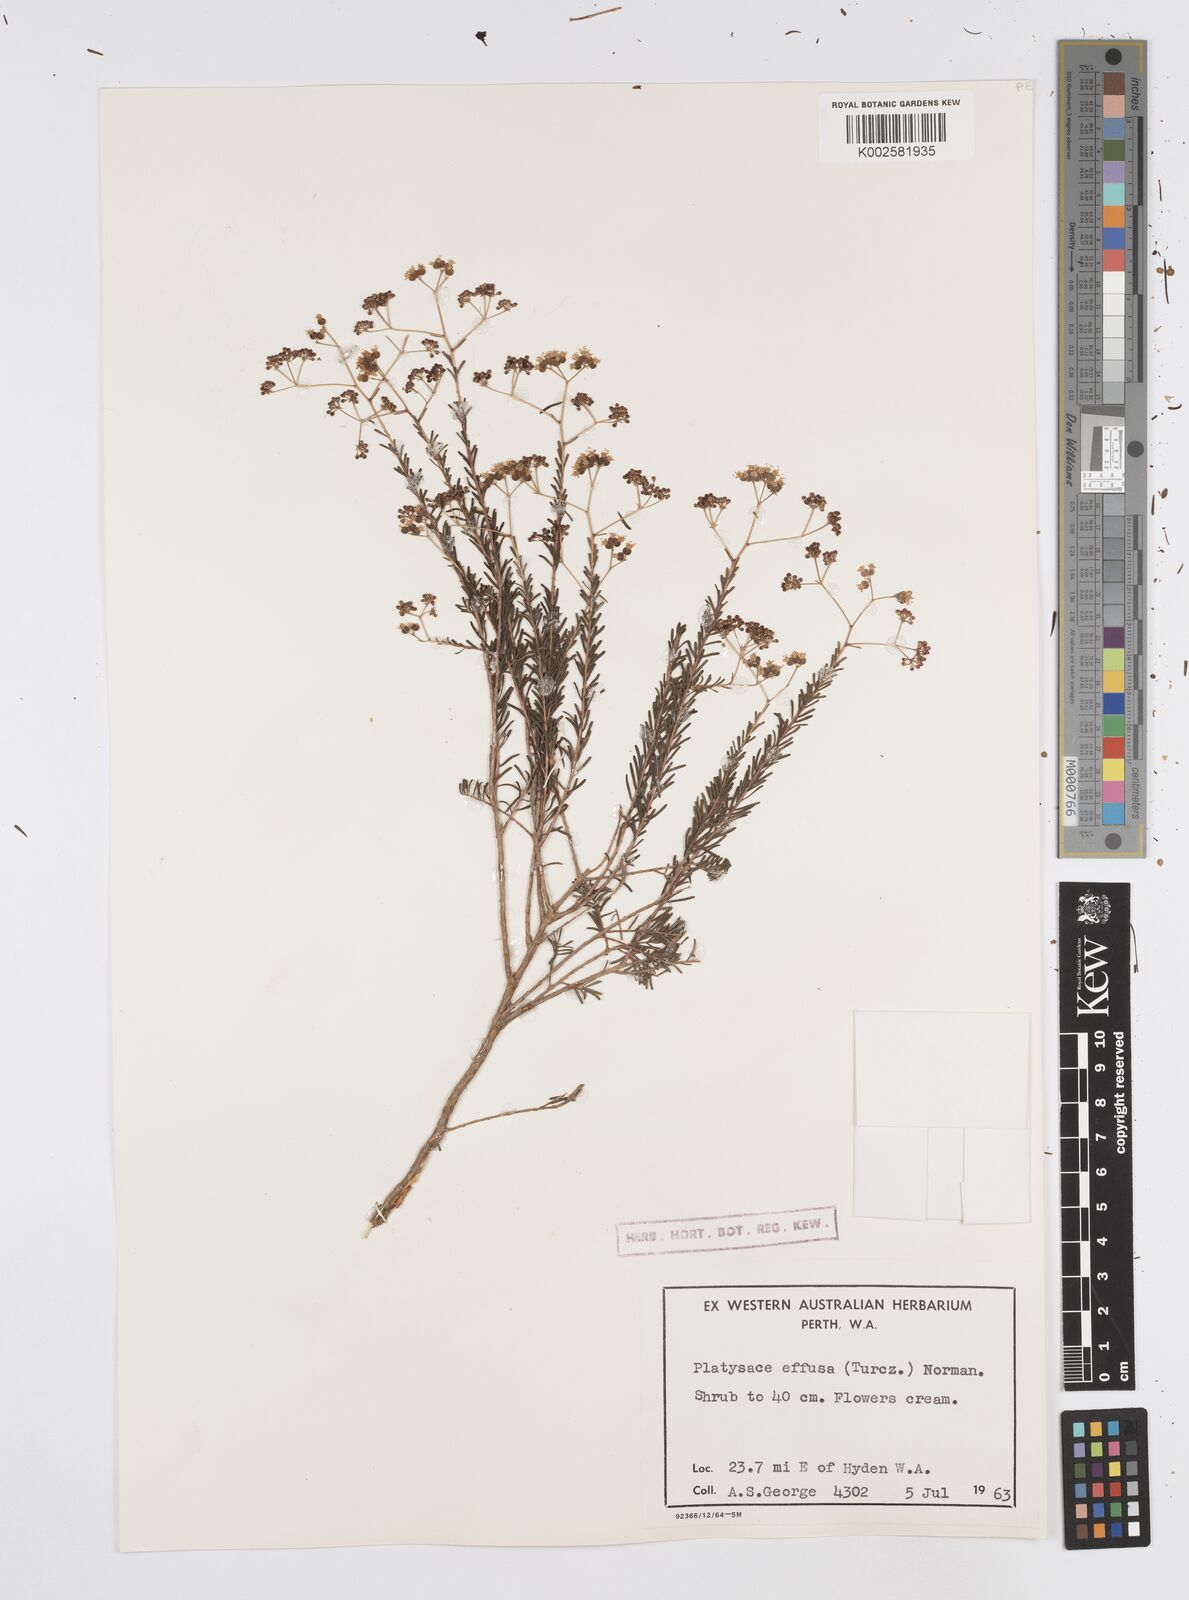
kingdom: Plantae
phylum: Tracheophyta
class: Magnoliopsida
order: Apiales
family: Apiaceae
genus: Platysace
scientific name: Platysace effusa
